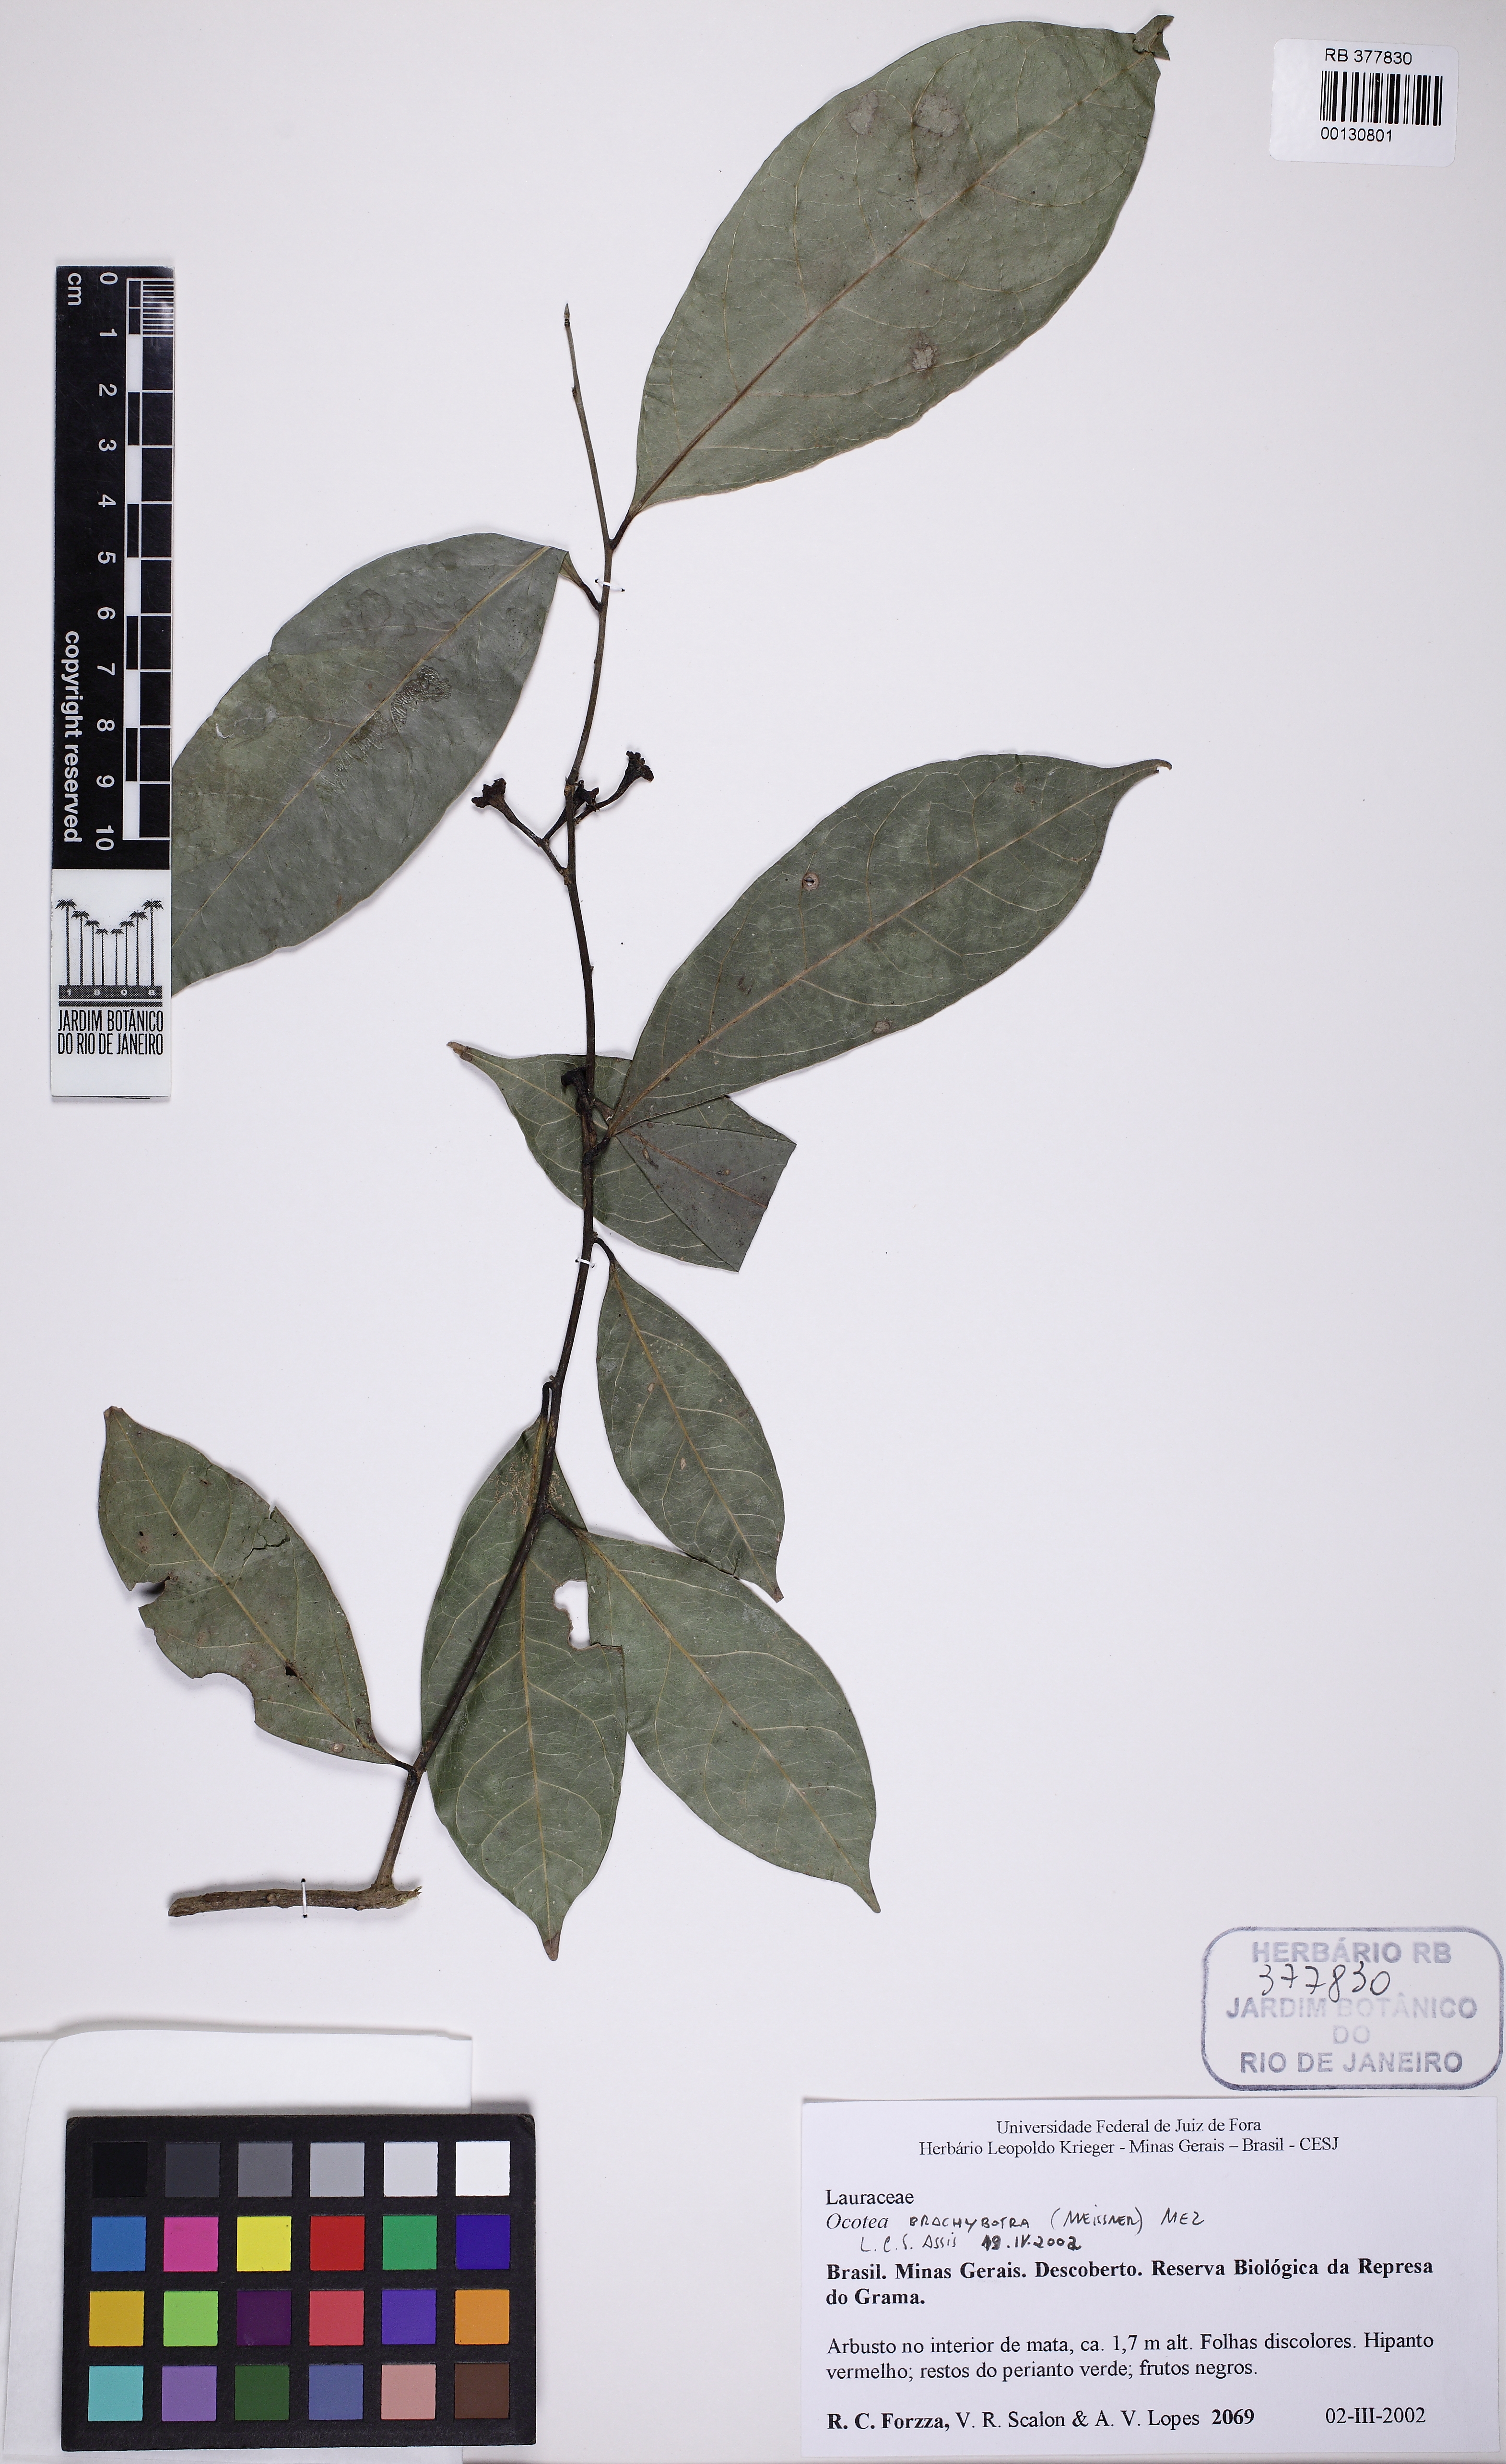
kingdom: Plantae
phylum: Tracheophyta
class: Magnoliopsida
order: Laurales
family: Lauraceae
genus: Ocotea
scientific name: Ocotea brachybotra
